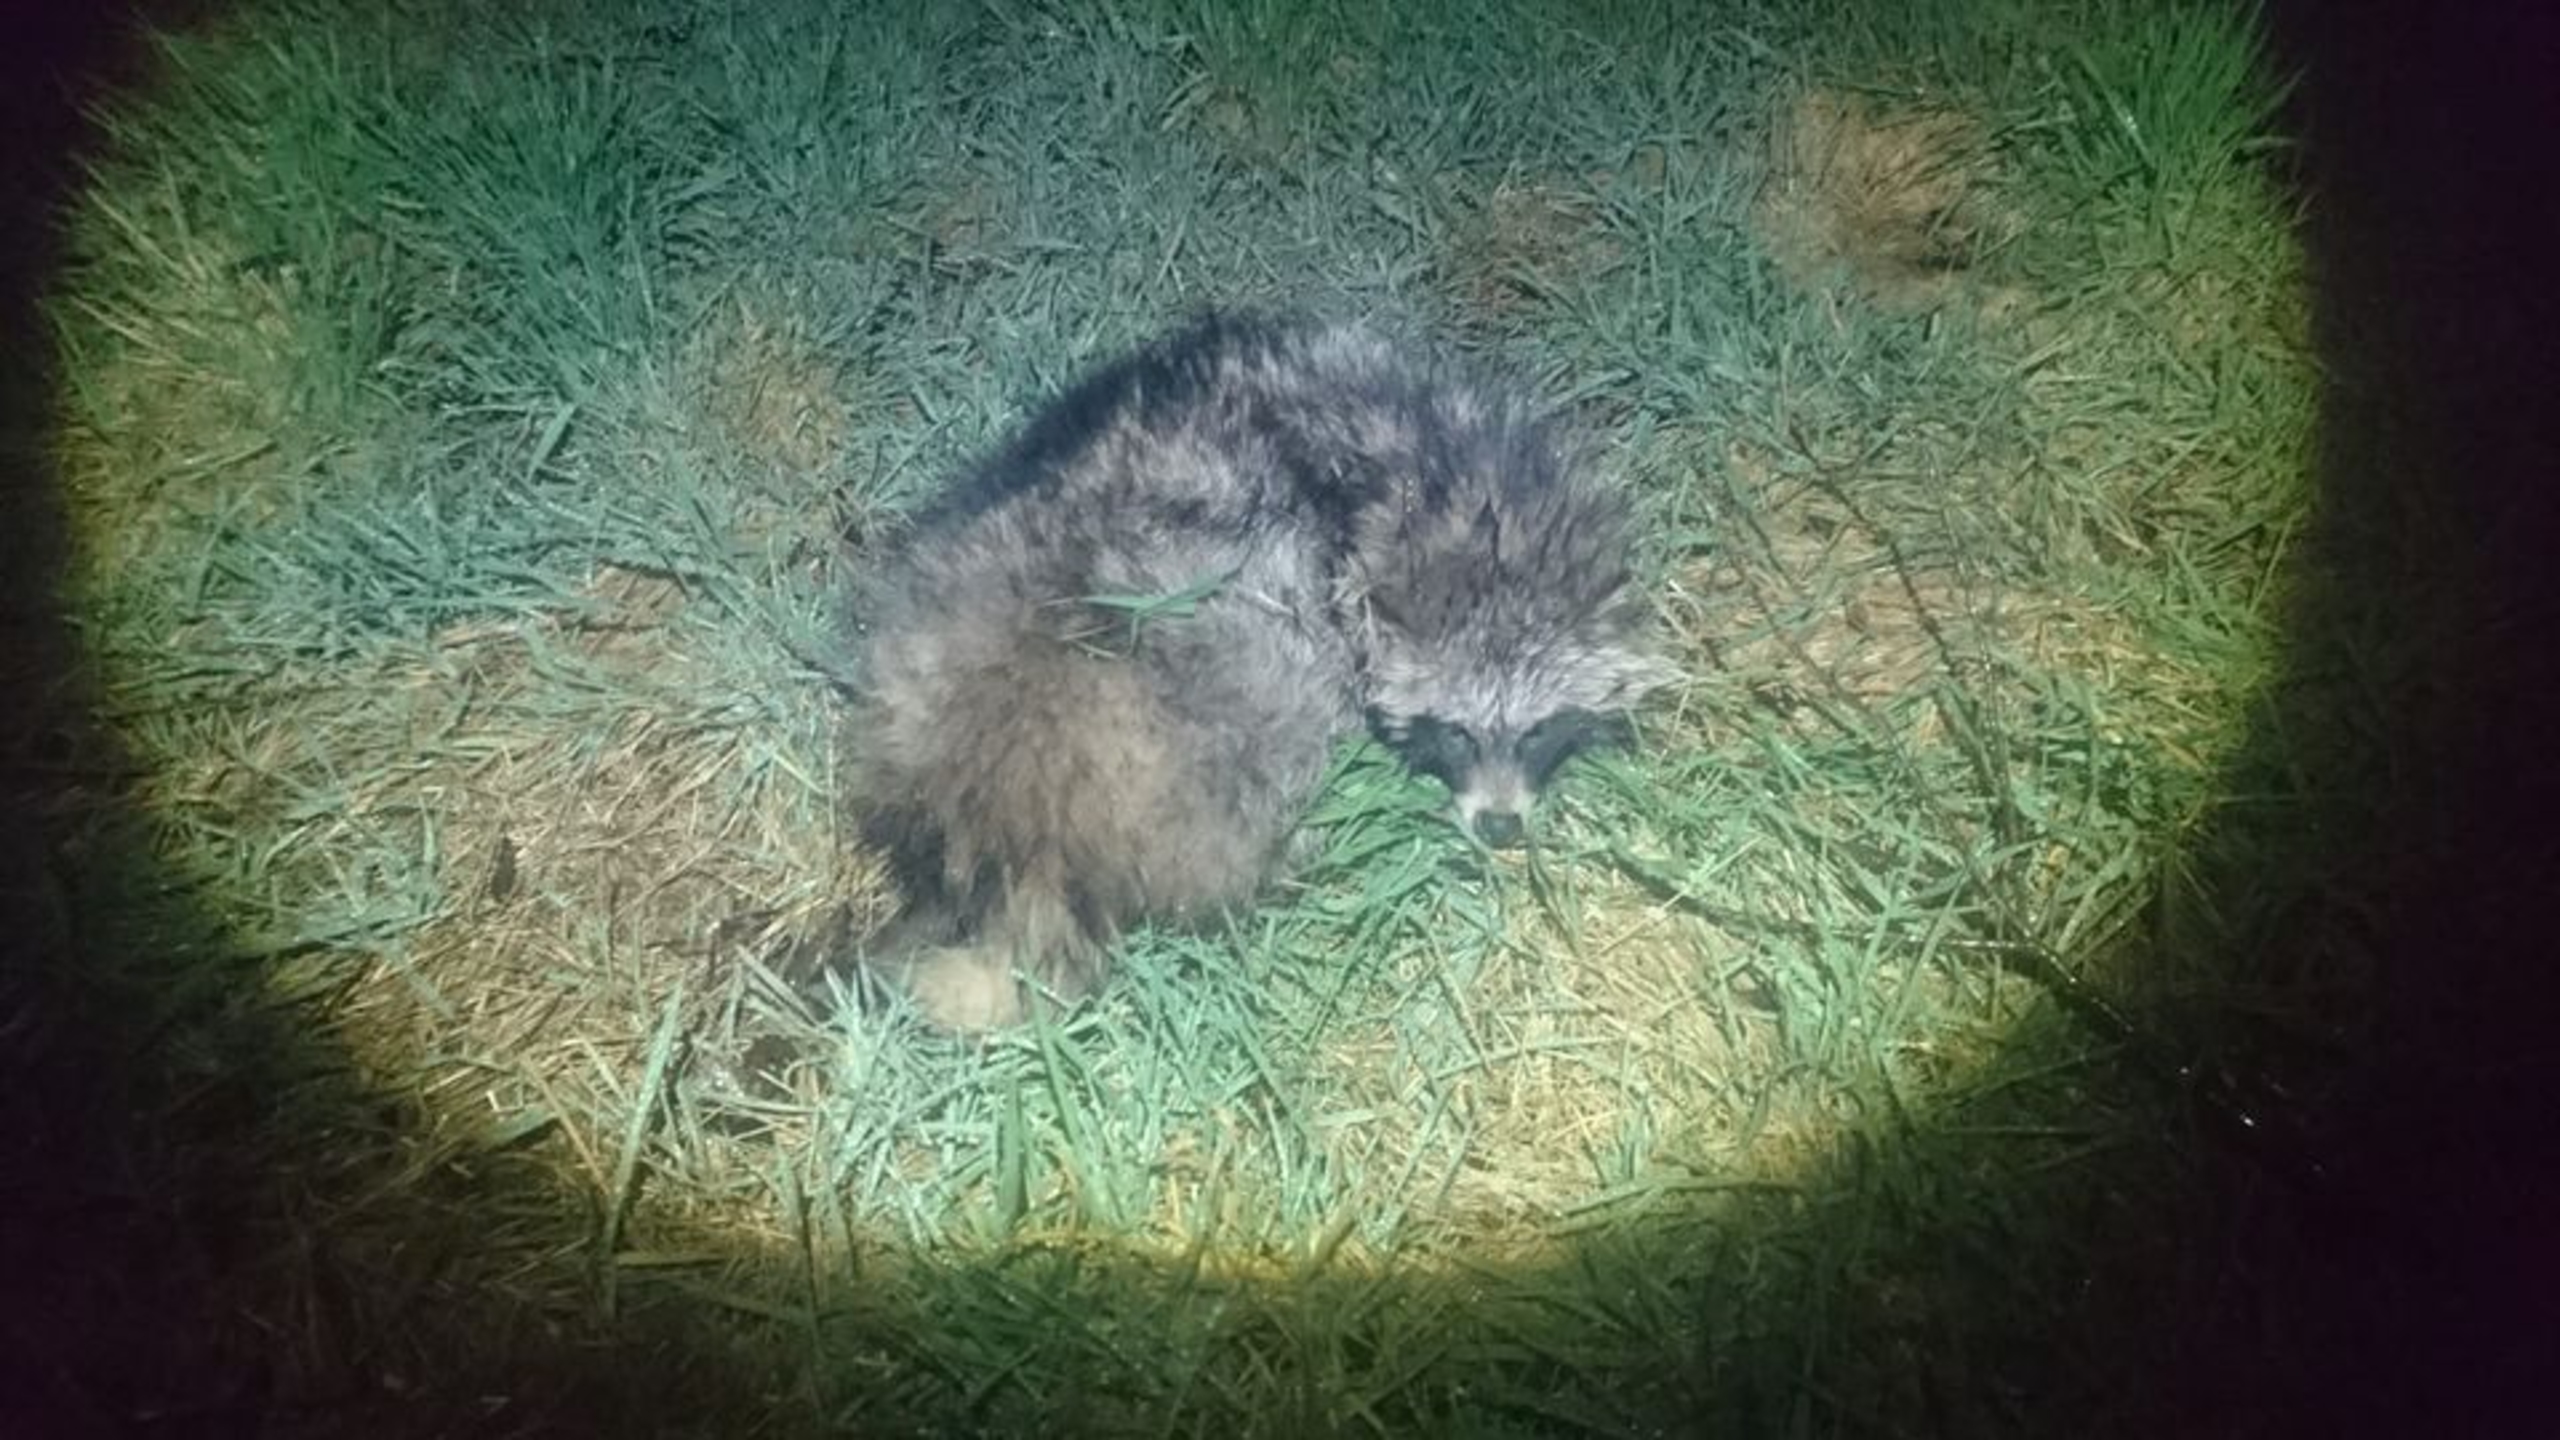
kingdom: Animalia
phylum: Chordata
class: Mammalia
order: Carnivora
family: Canidae
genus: Nyctereutes
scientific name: Nyctereutes procyonoides
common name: Mårhund
